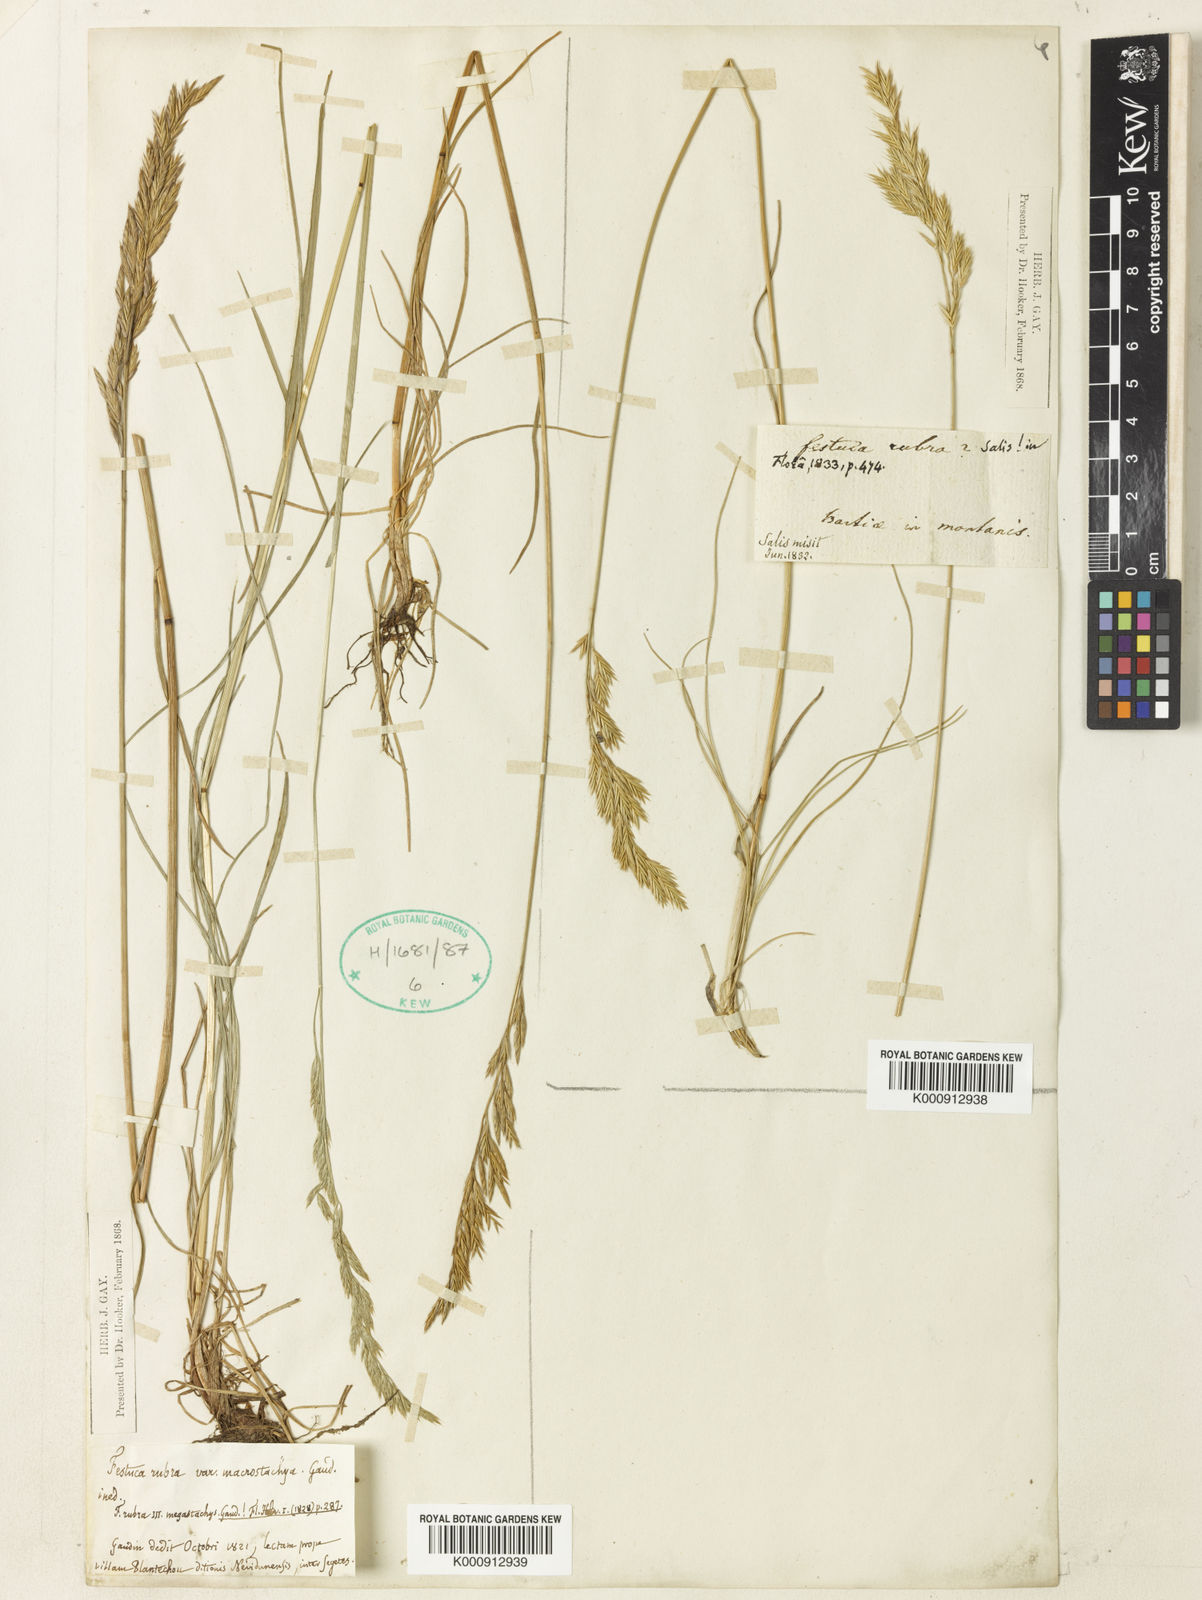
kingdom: Plantae
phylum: Tracheophyta
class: Liliopsida
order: Poales
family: Poaceae
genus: Festuca
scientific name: Festuca rubra
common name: Red fescue
